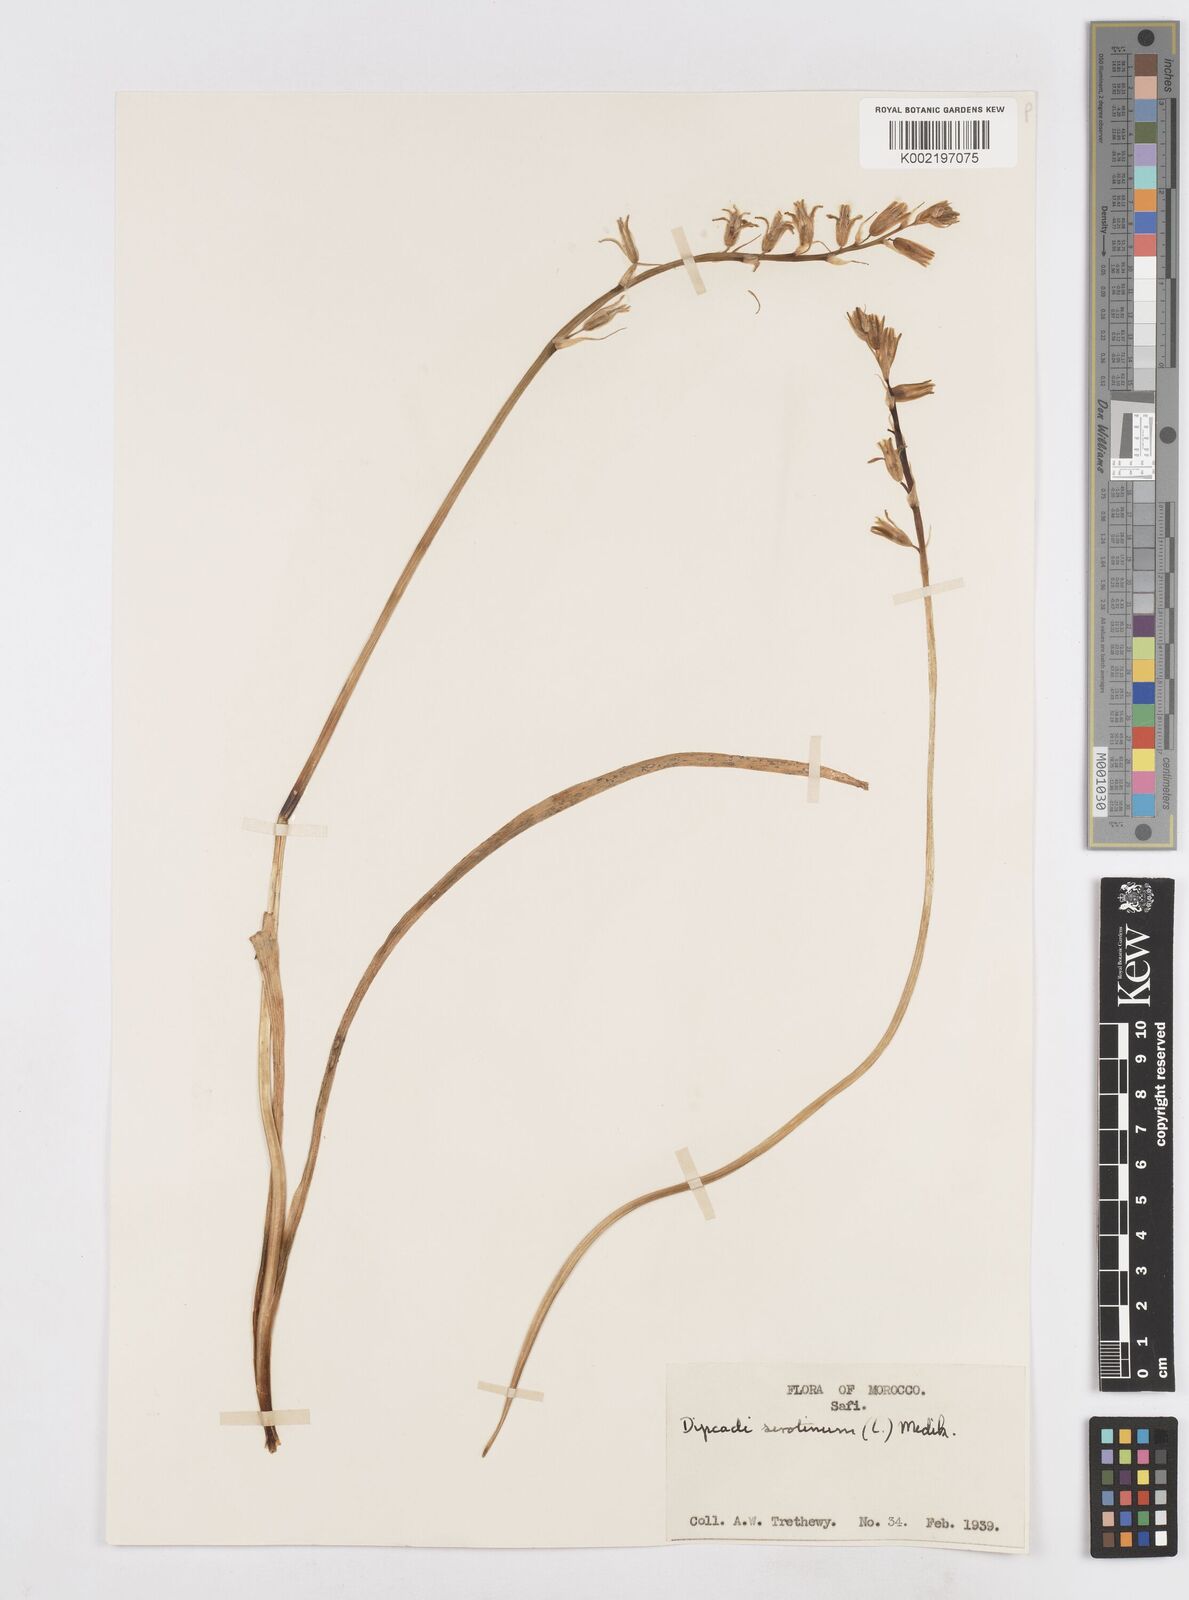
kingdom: Plantae
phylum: Tracheophyta
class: Liliopsida
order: Asparagales
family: Asparagaceae
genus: Dipcadi
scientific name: Dipcadi serotinum
